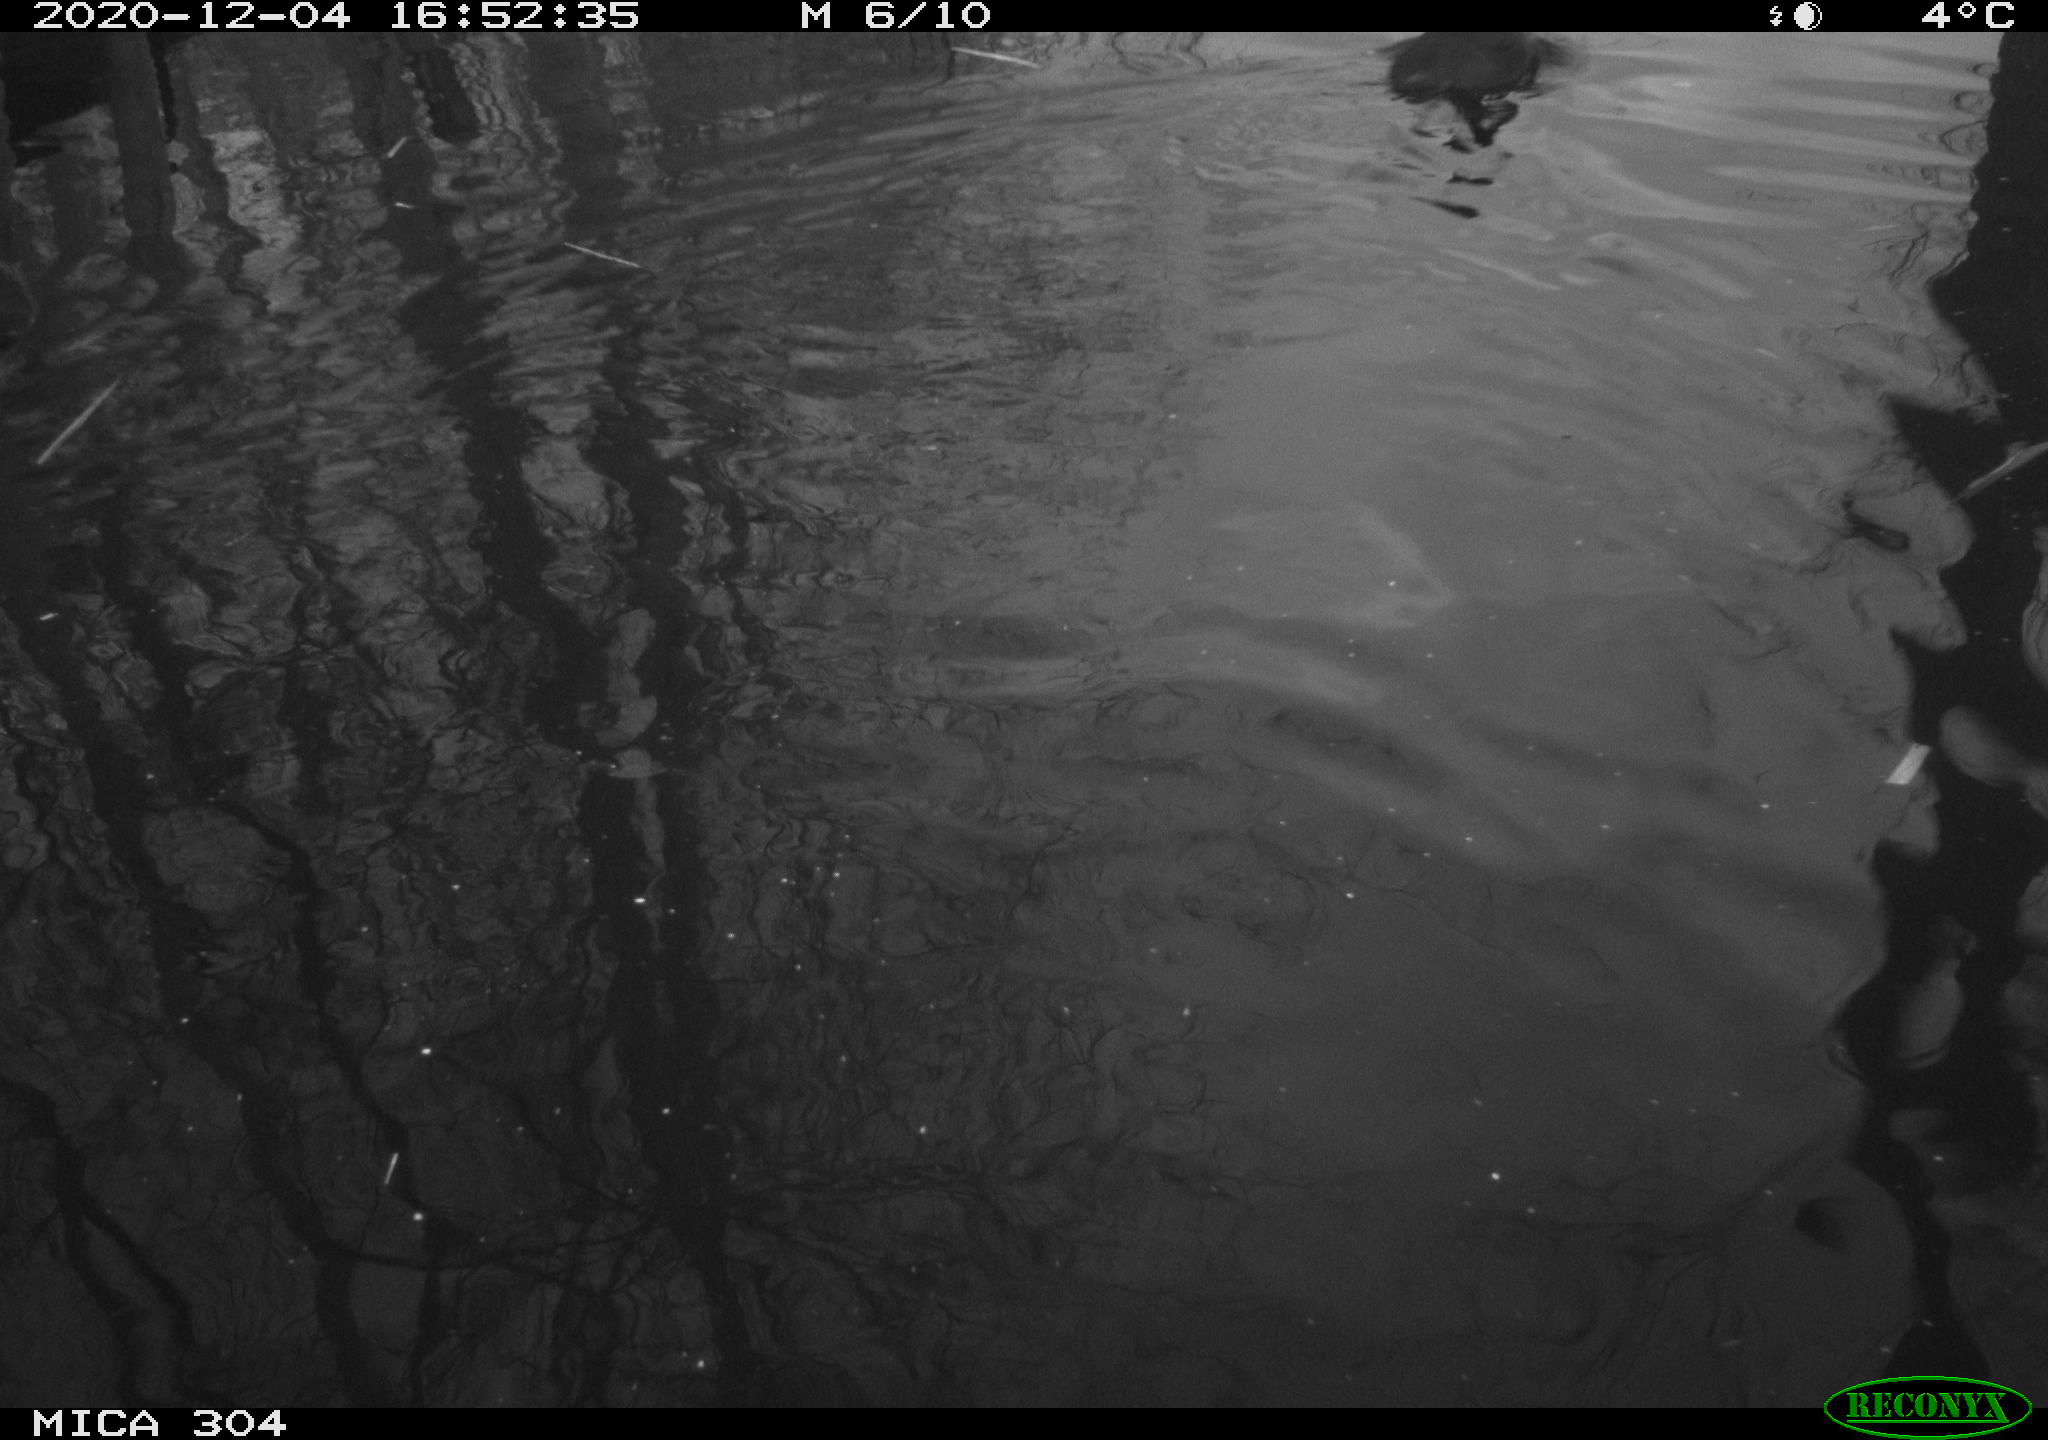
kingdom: Animalia
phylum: Chordata
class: Aves
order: Gruiformes
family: Rallidae
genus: Fulica
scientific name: Fulica atra
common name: Eurasian coot
